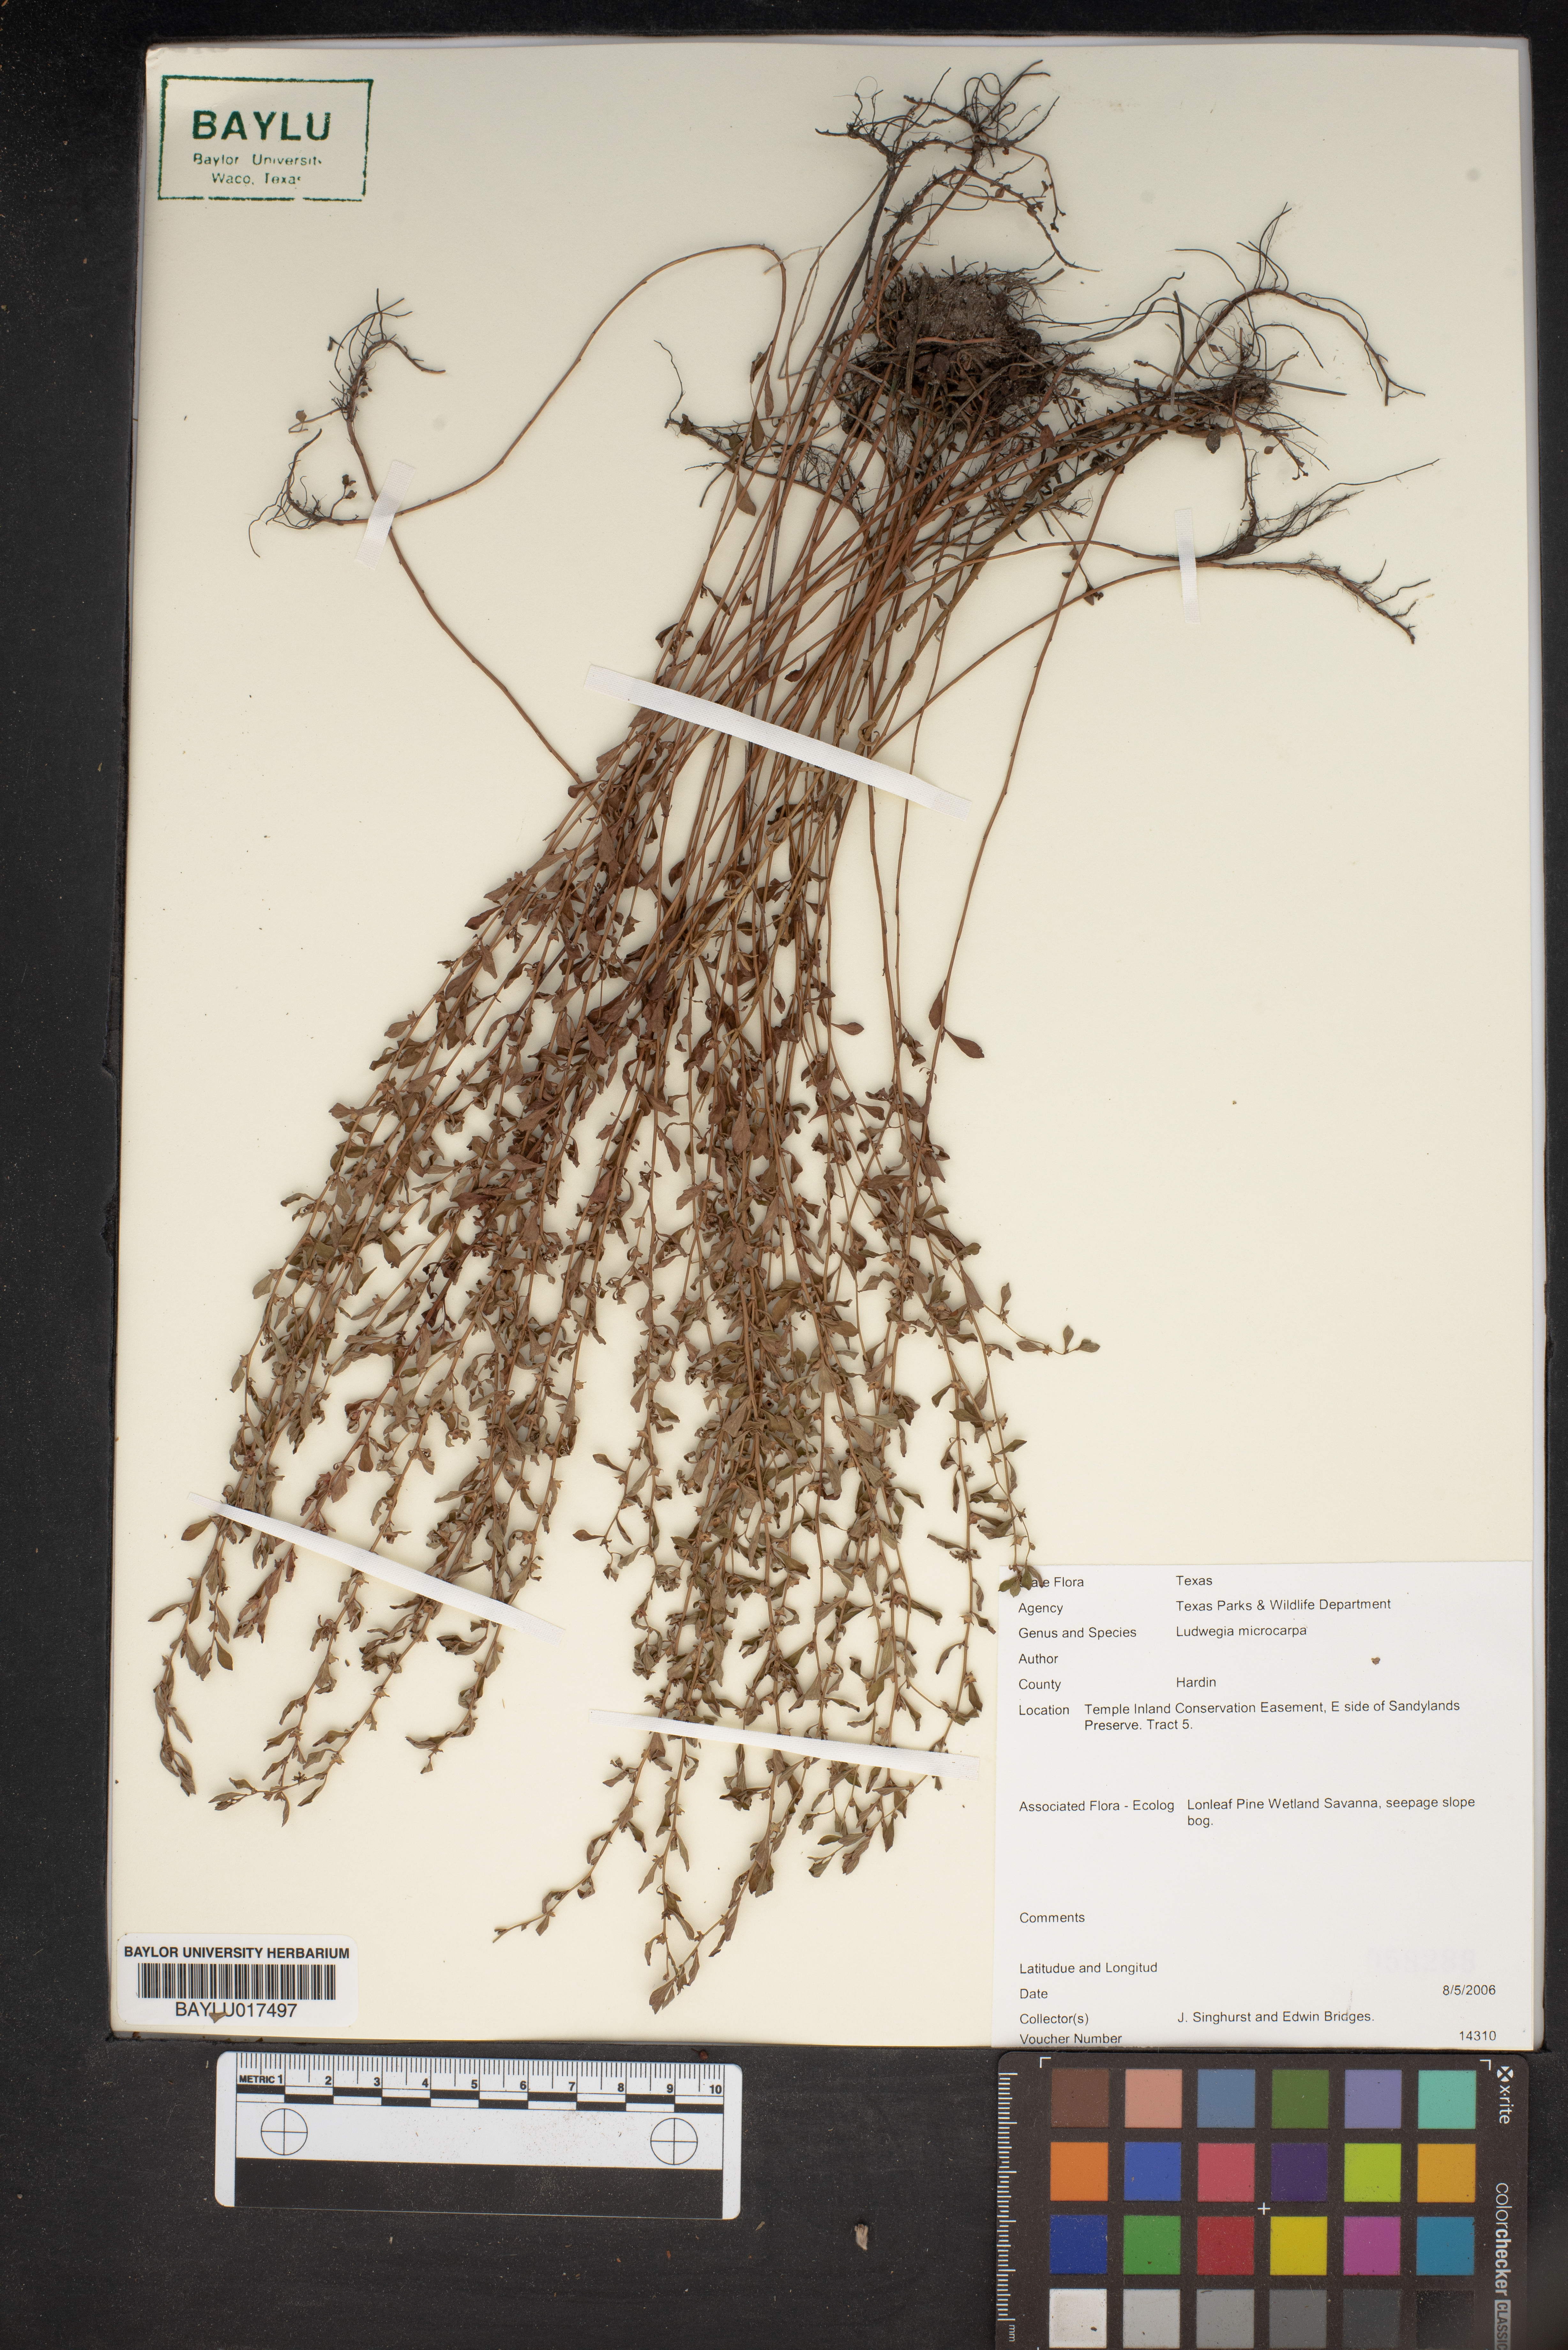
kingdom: Plantae
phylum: Tracheophyta
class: Magnoliopsida
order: Myrtales
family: Onagraceae
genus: Ludwigia
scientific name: Ludwigia microcarpa
